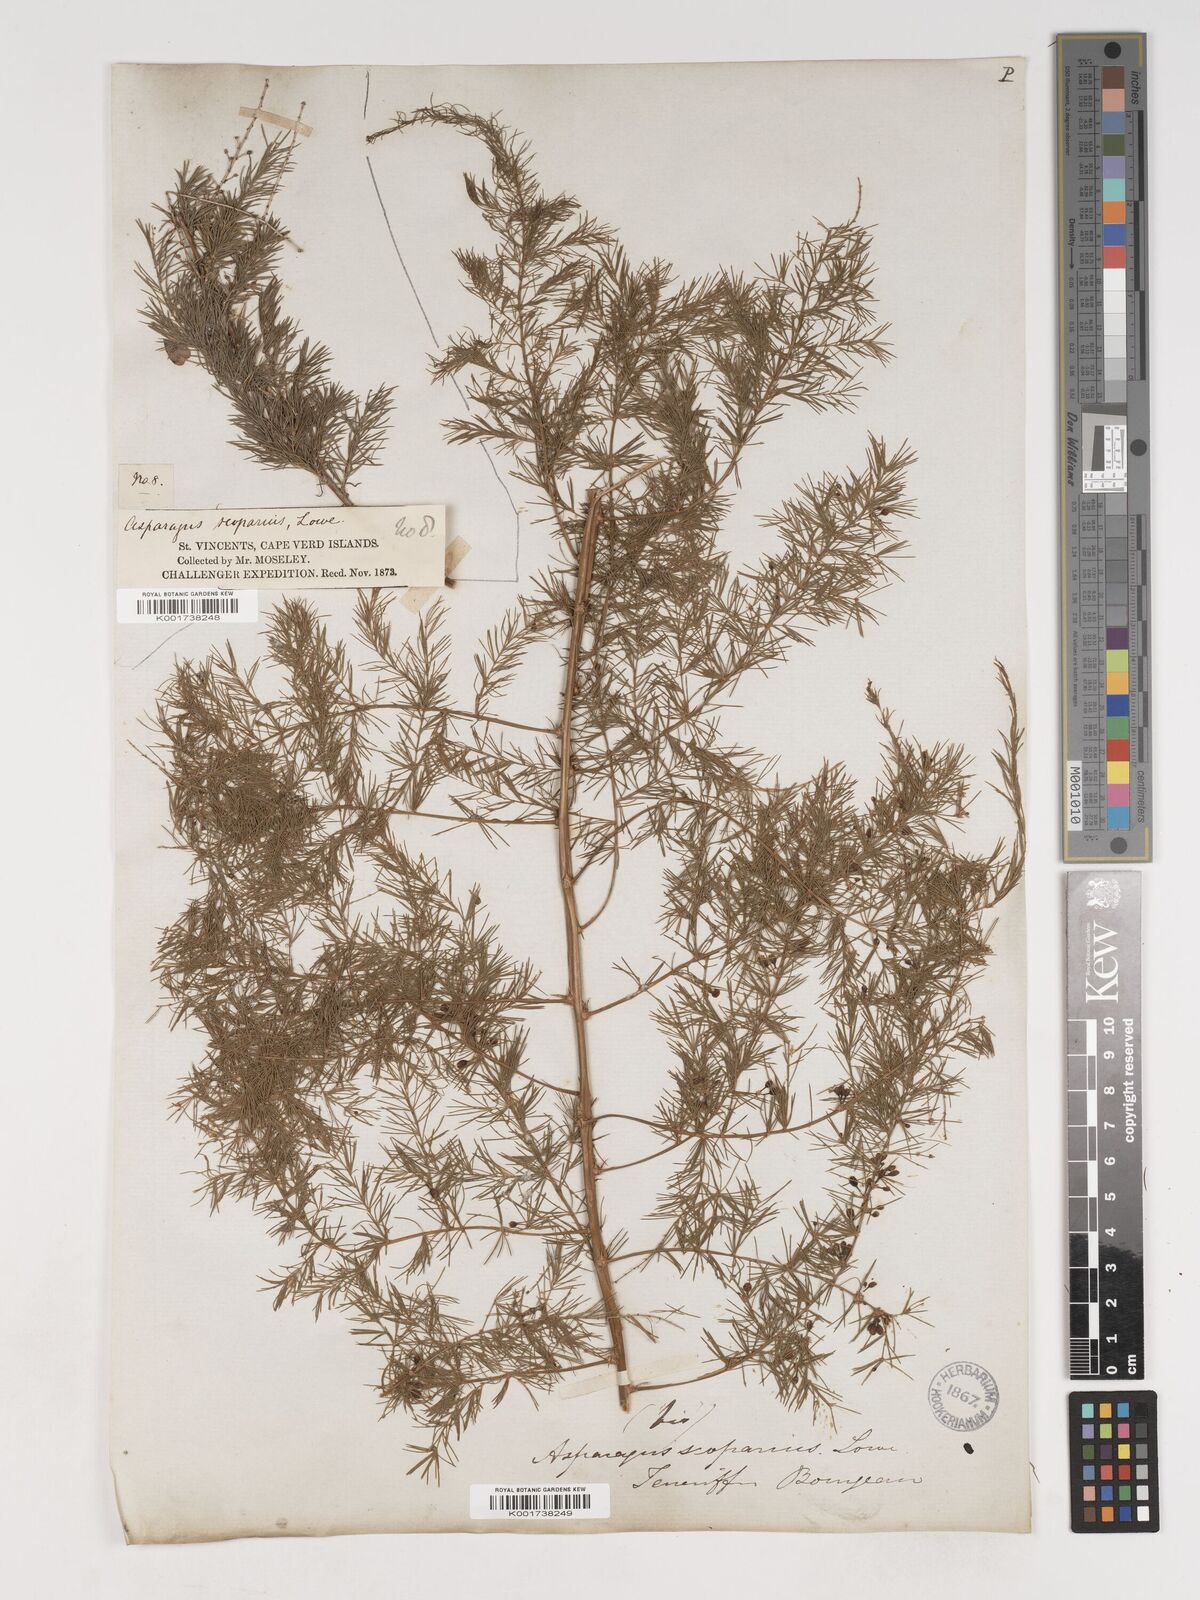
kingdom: Plantae
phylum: Tracheophyta
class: Liliopsida
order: Asparagales
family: Asparagaceae
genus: Asparagus
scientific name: Asparagus scoparius
